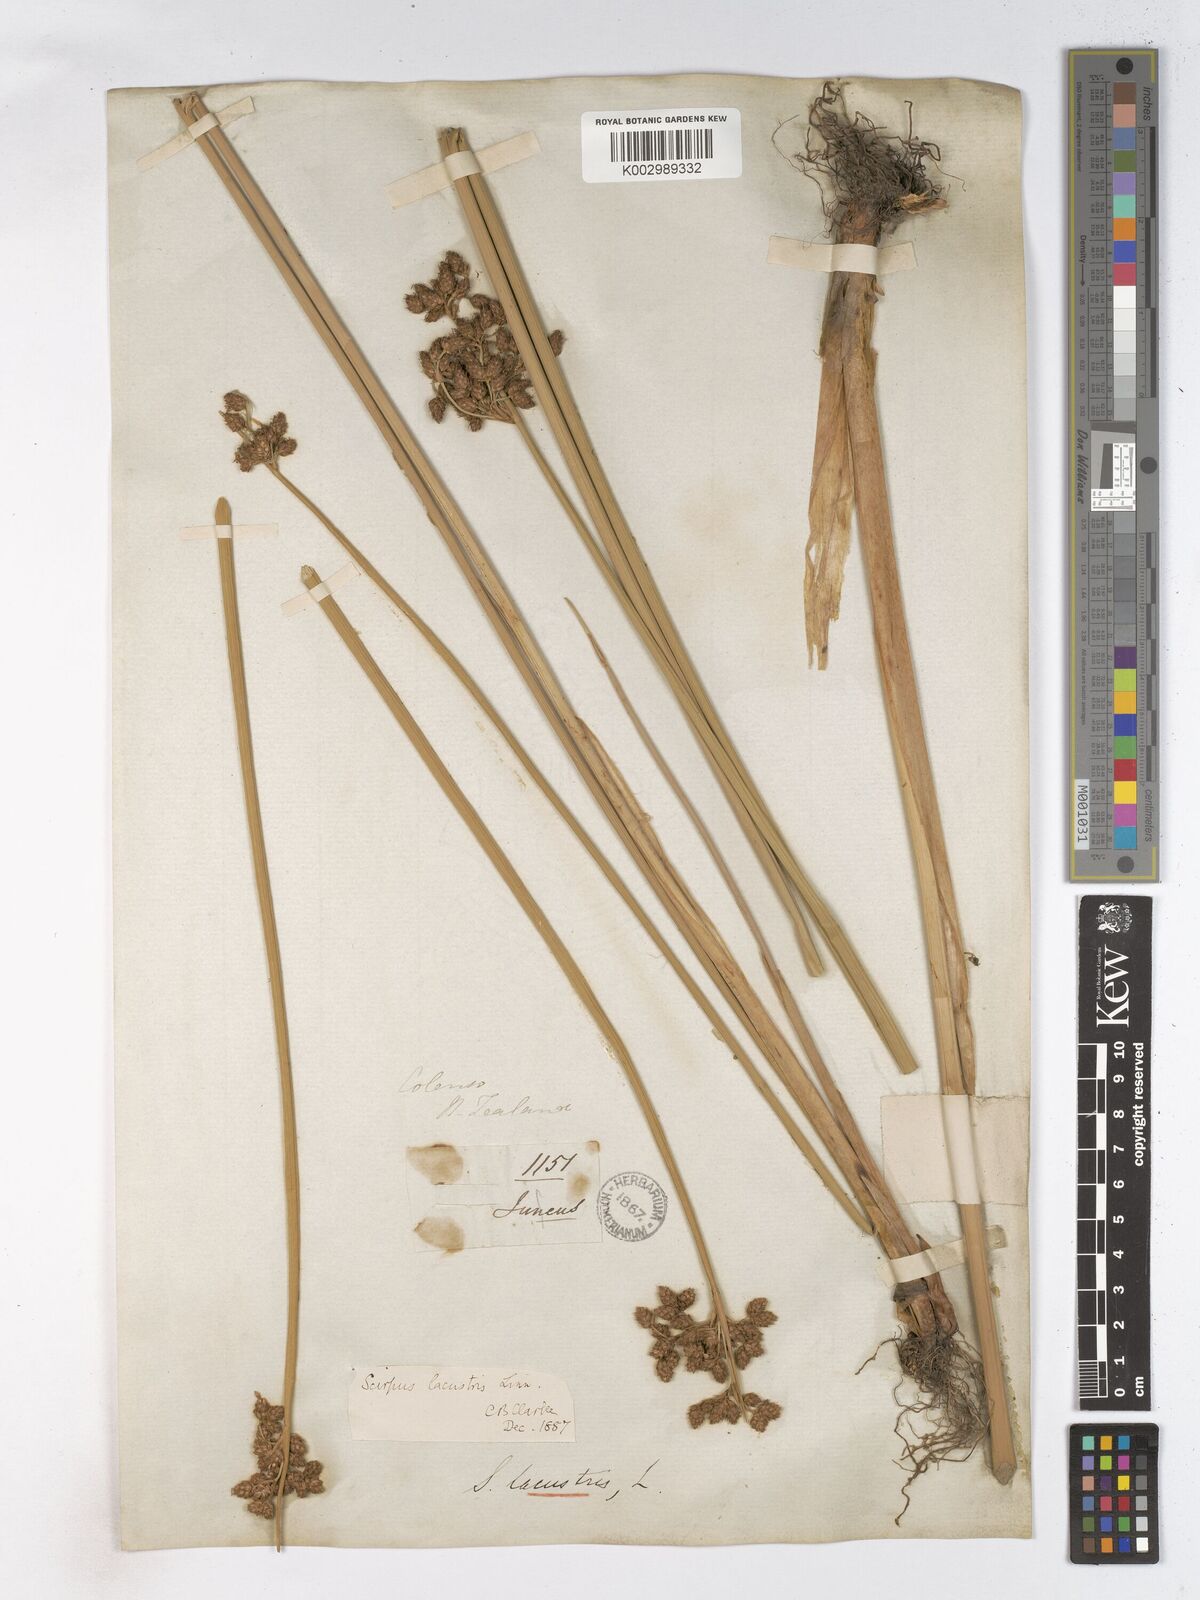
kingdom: Plantae
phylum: Tracheophyta
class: Liliopsida
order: Poales
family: Cyperaceae
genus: Schoenoplectus
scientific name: Schoenoplectus lacustris
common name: Common club-rush
